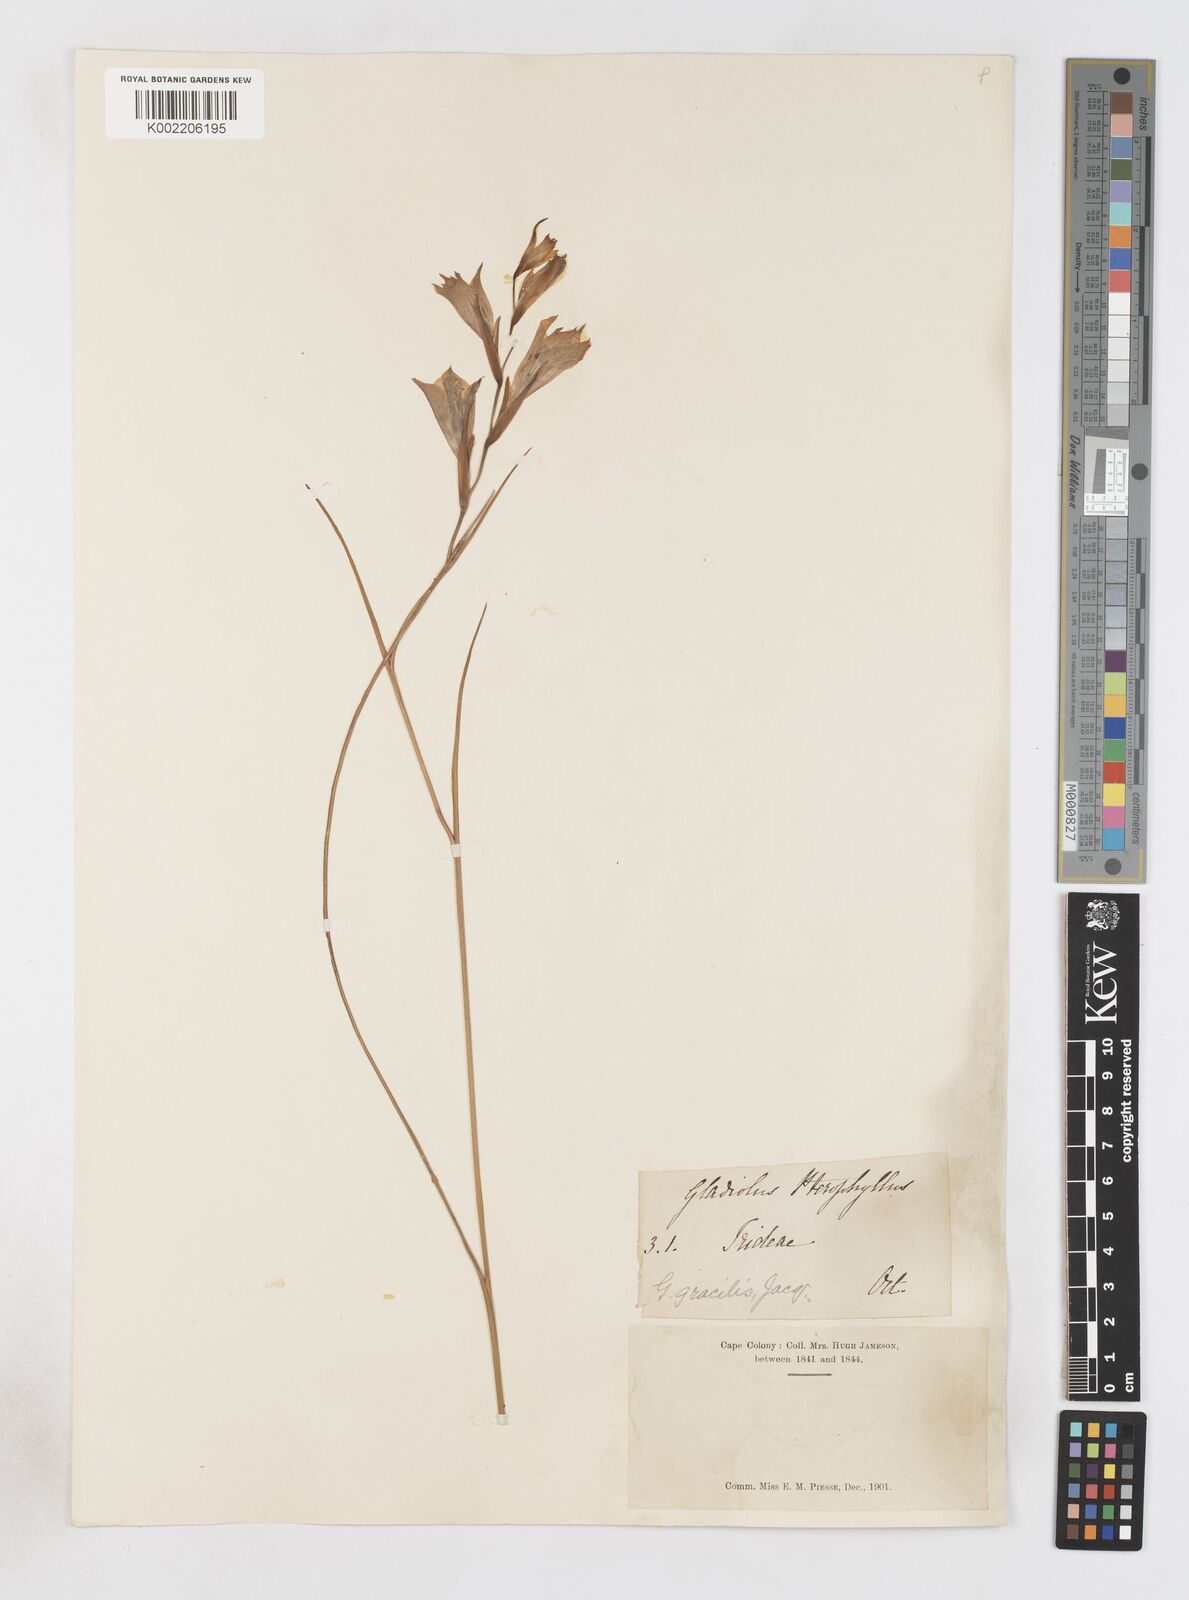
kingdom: Plantae
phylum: Tracheophyta
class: Liliopsida
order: Asparagales
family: Iridaceae
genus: Gladiolus
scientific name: Gladiolus gracilis
